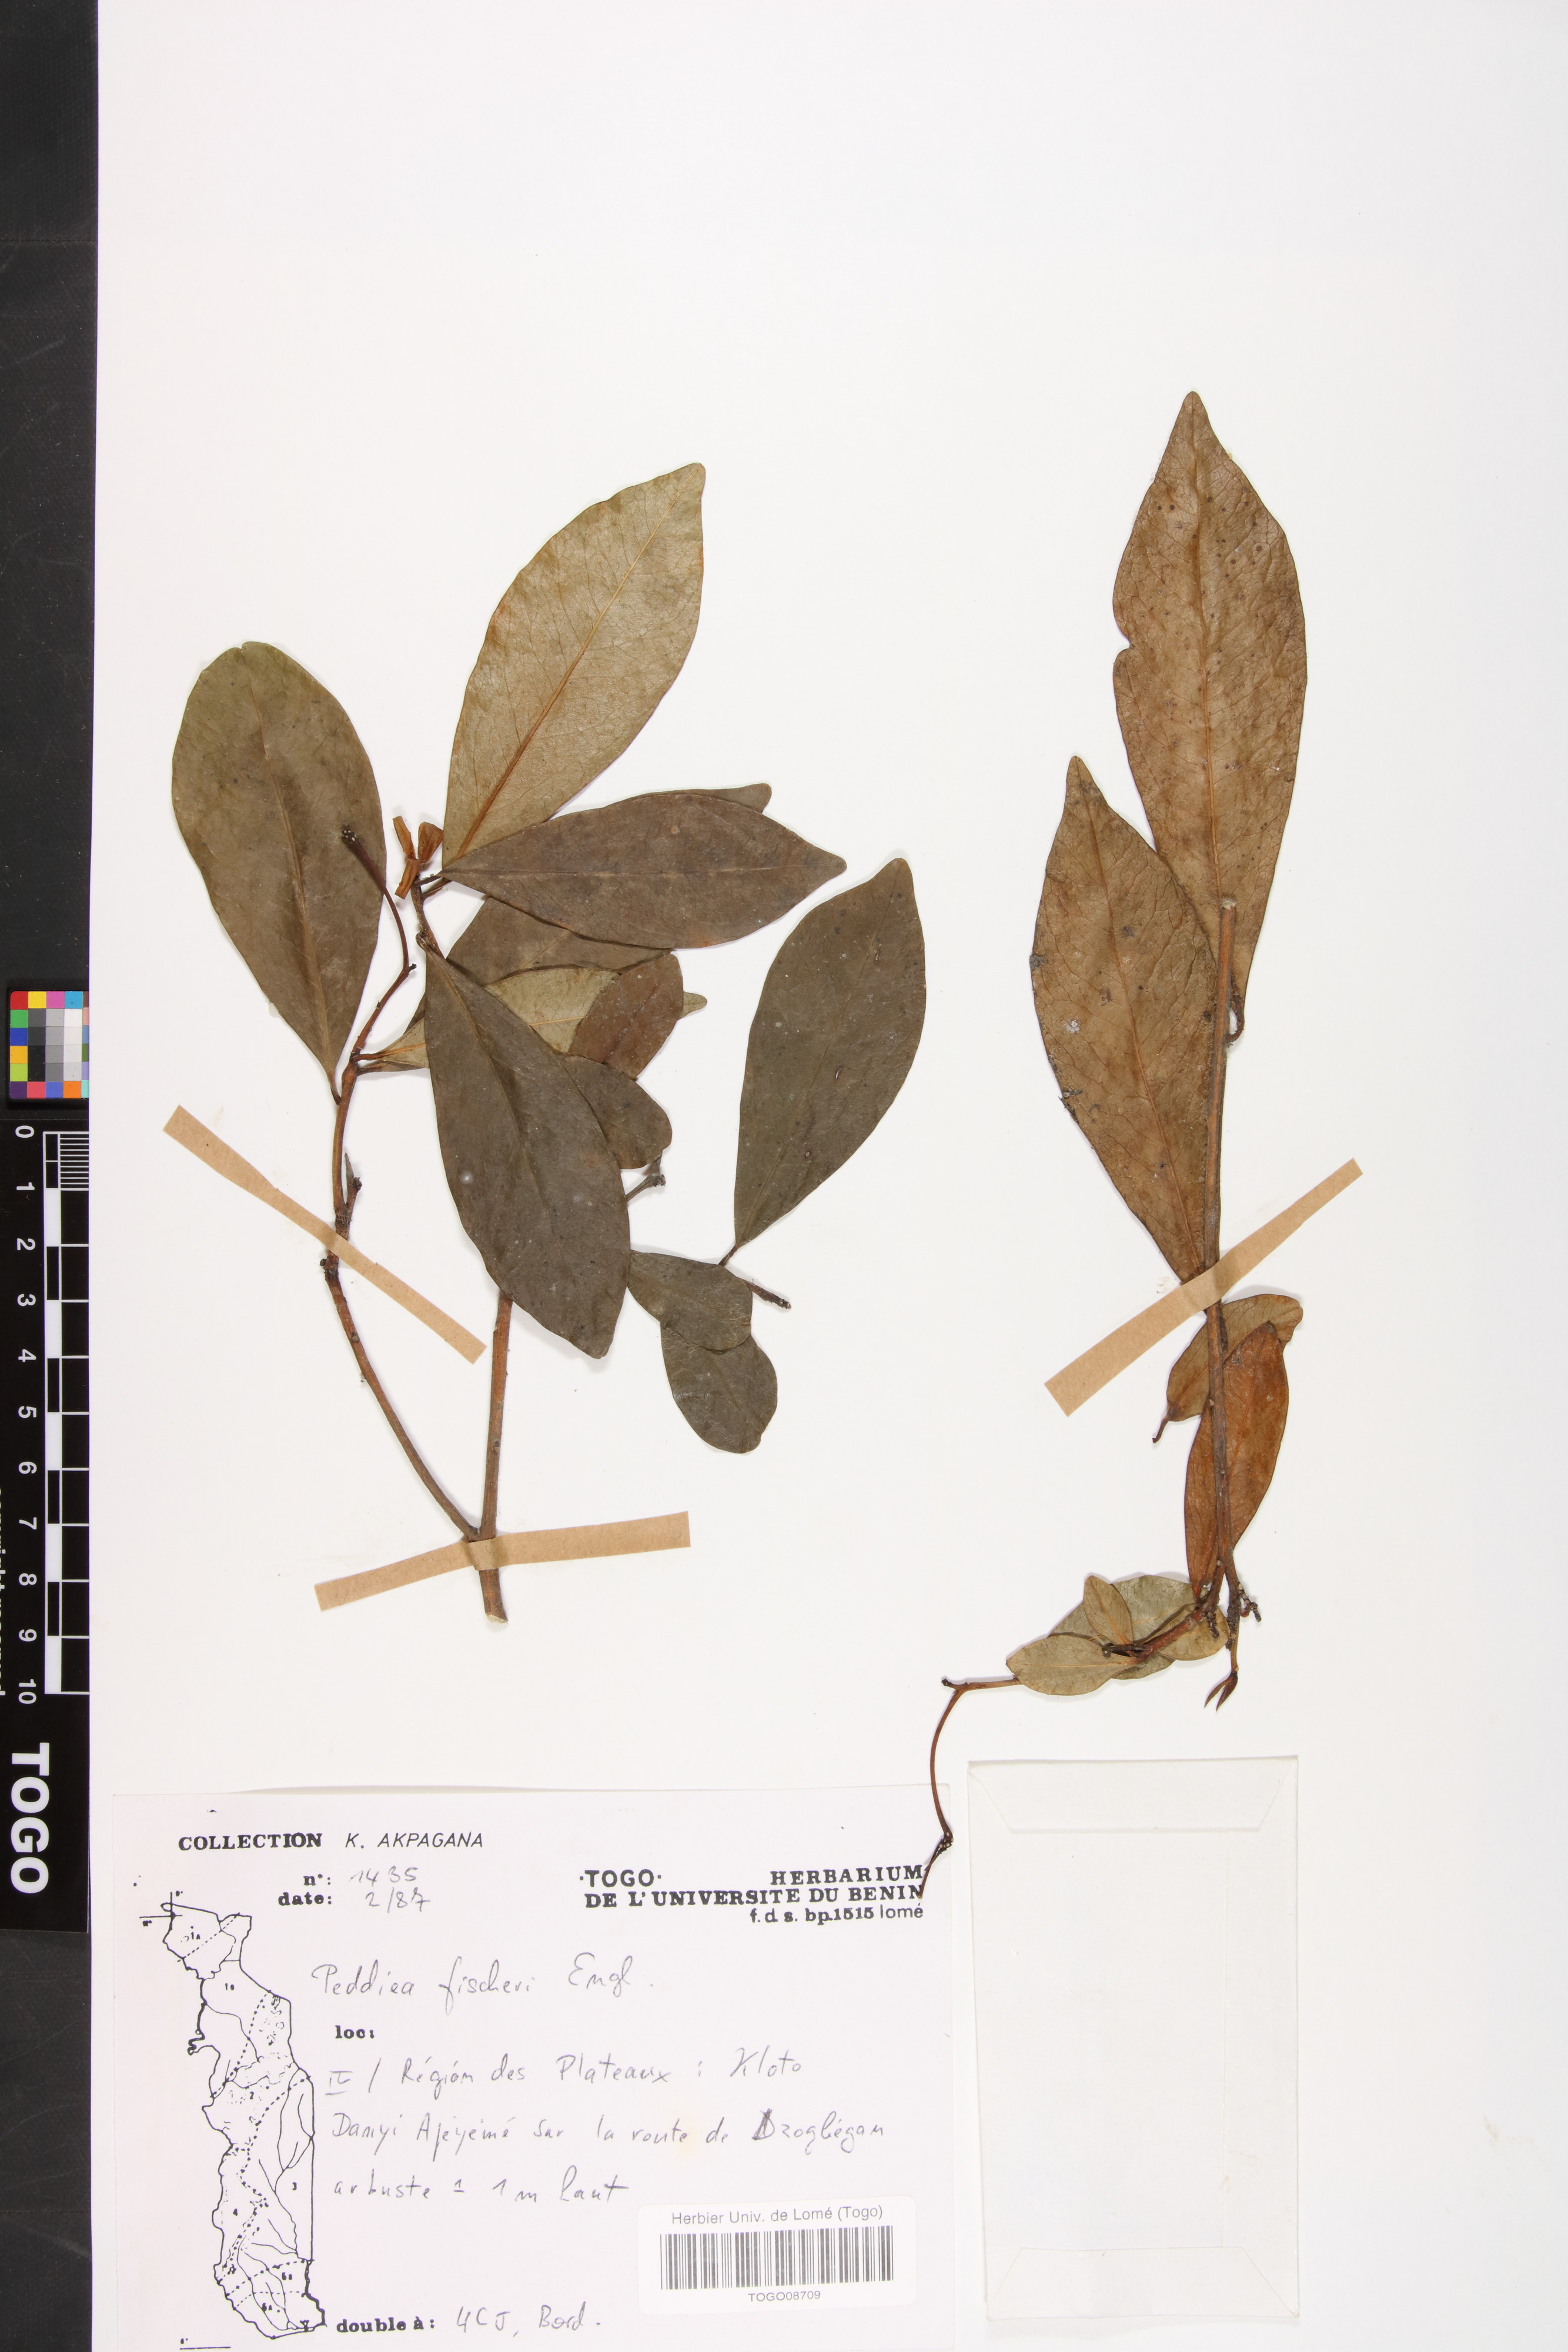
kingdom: Plantae
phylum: Tracheophyta
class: Magnoliopsida
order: Malvales
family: Thymelaeaceae
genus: Peddiea
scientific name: Peddiea fischeri
